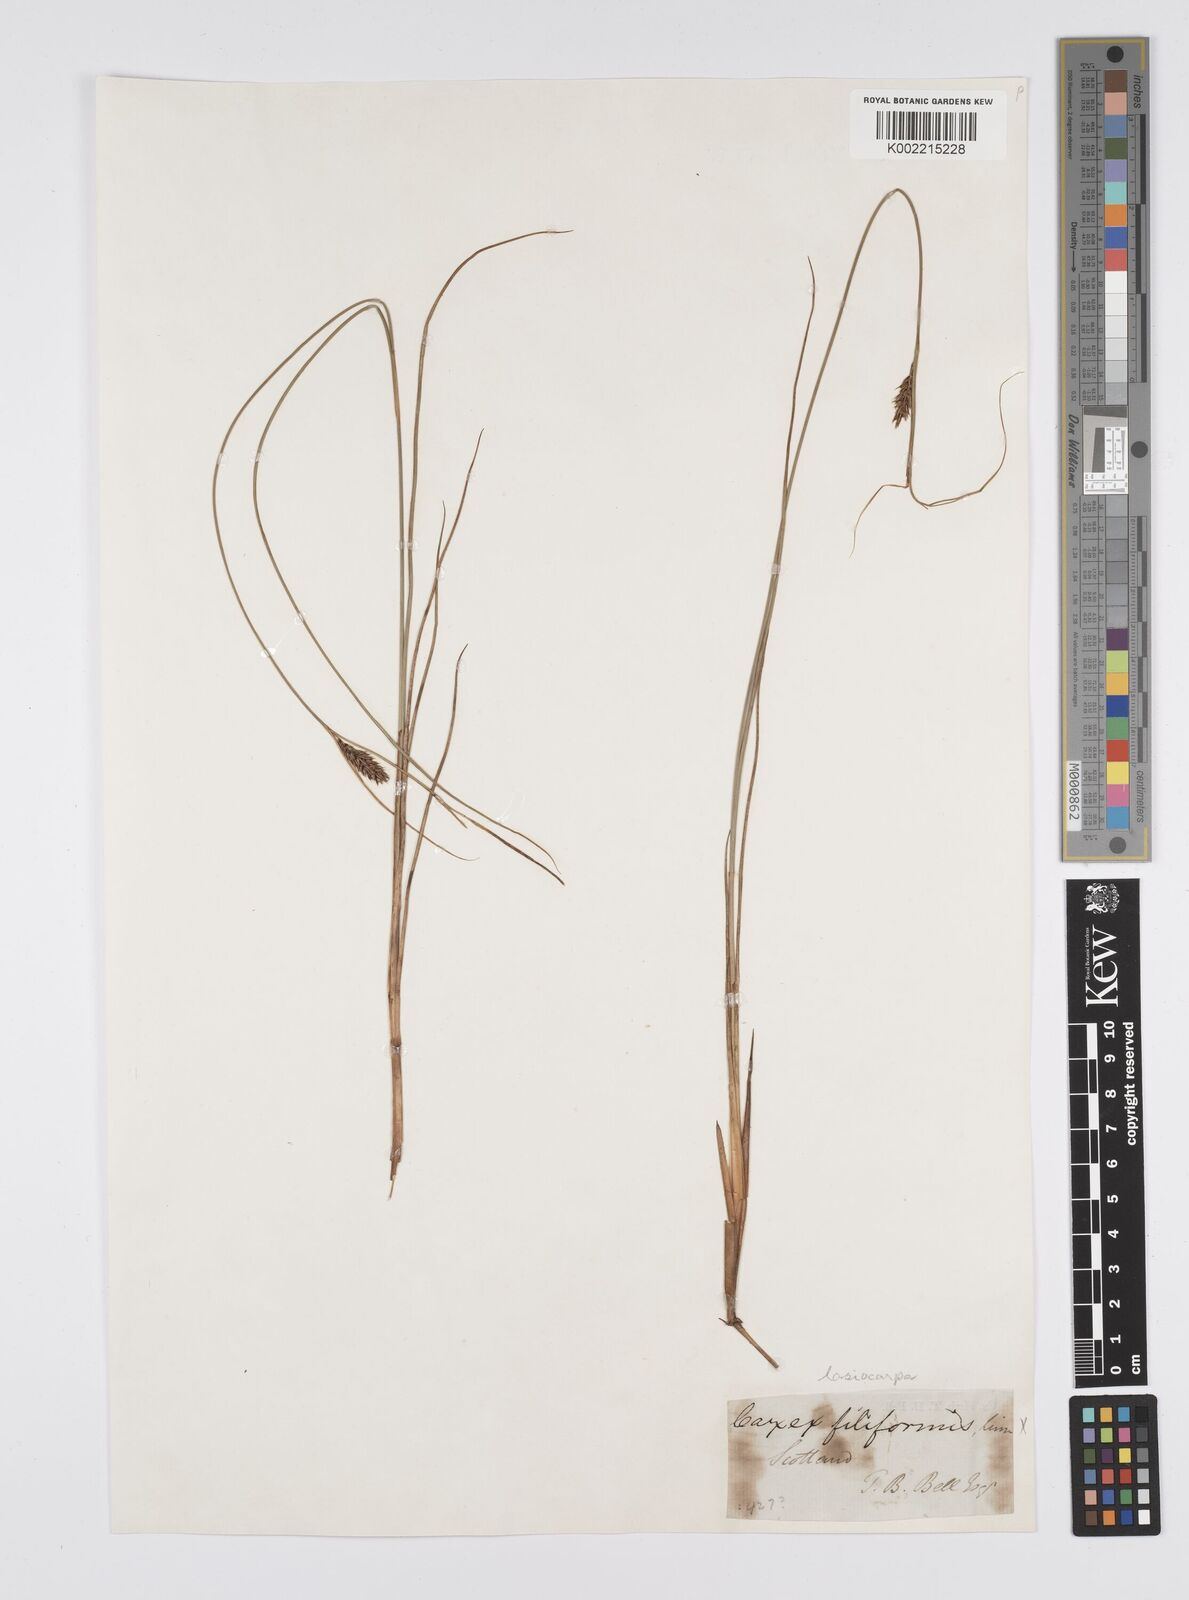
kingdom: Plantae
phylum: Tracheophyta
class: Liliopsida
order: Poales
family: Cyperaceae
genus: Carex
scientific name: Carex lasiocarpa
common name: Slender sedge
